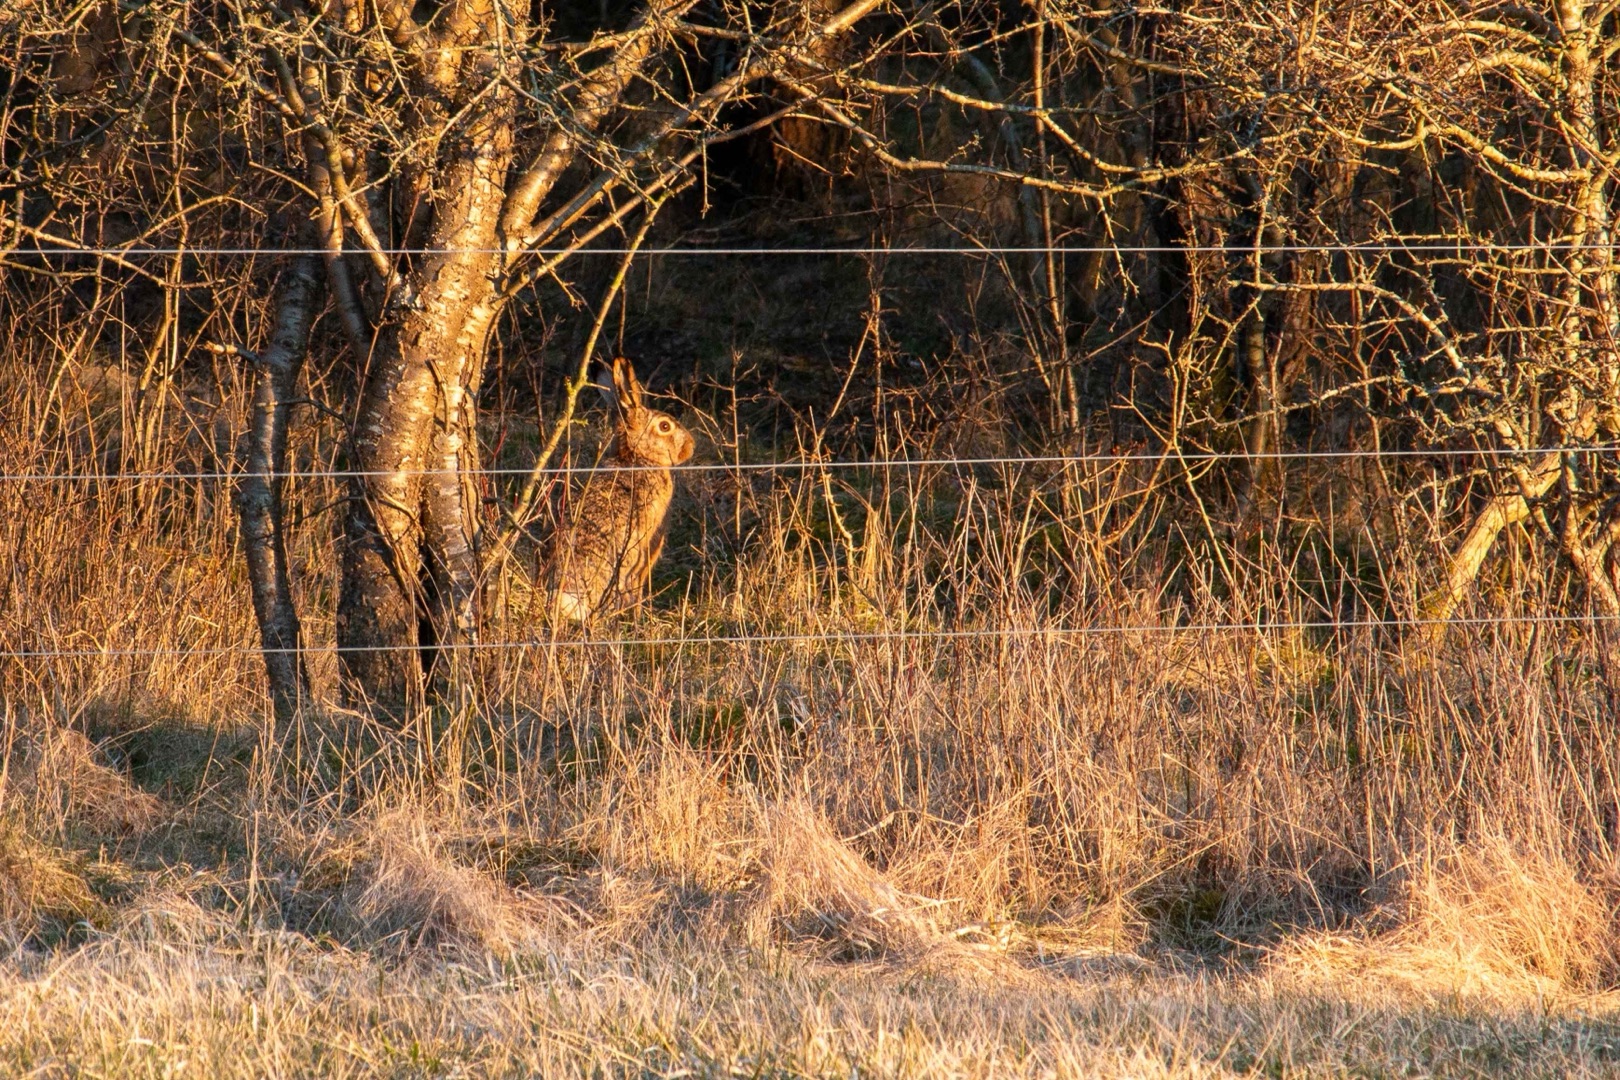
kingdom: Animalia
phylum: Chordata
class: Mammalia
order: Lagomorpha
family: Leporidae
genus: Lepus
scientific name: Lepus europaeus
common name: Hare
